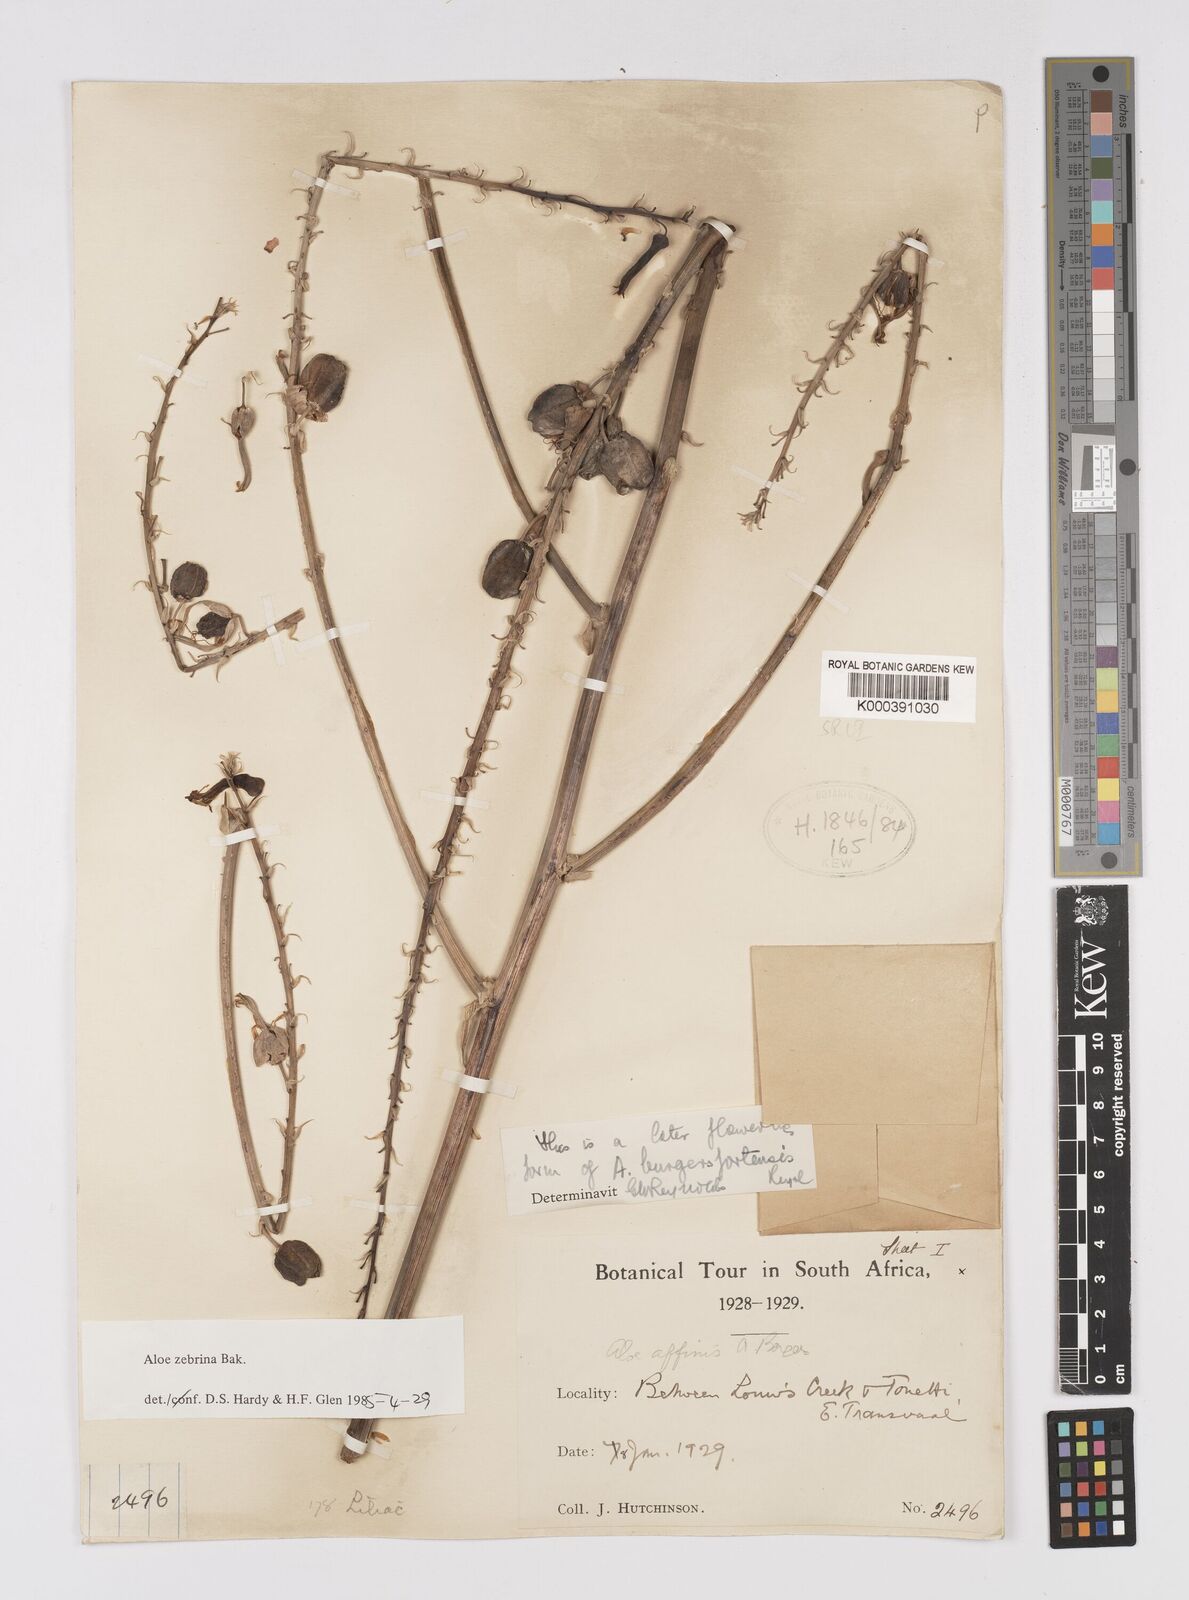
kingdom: Plantae
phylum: Tracheophyta
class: Liliopsida
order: Asparagales
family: Asphodelaceae
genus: Aloe
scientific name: Aloe zebrina
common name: Zebra-leaf aloe
